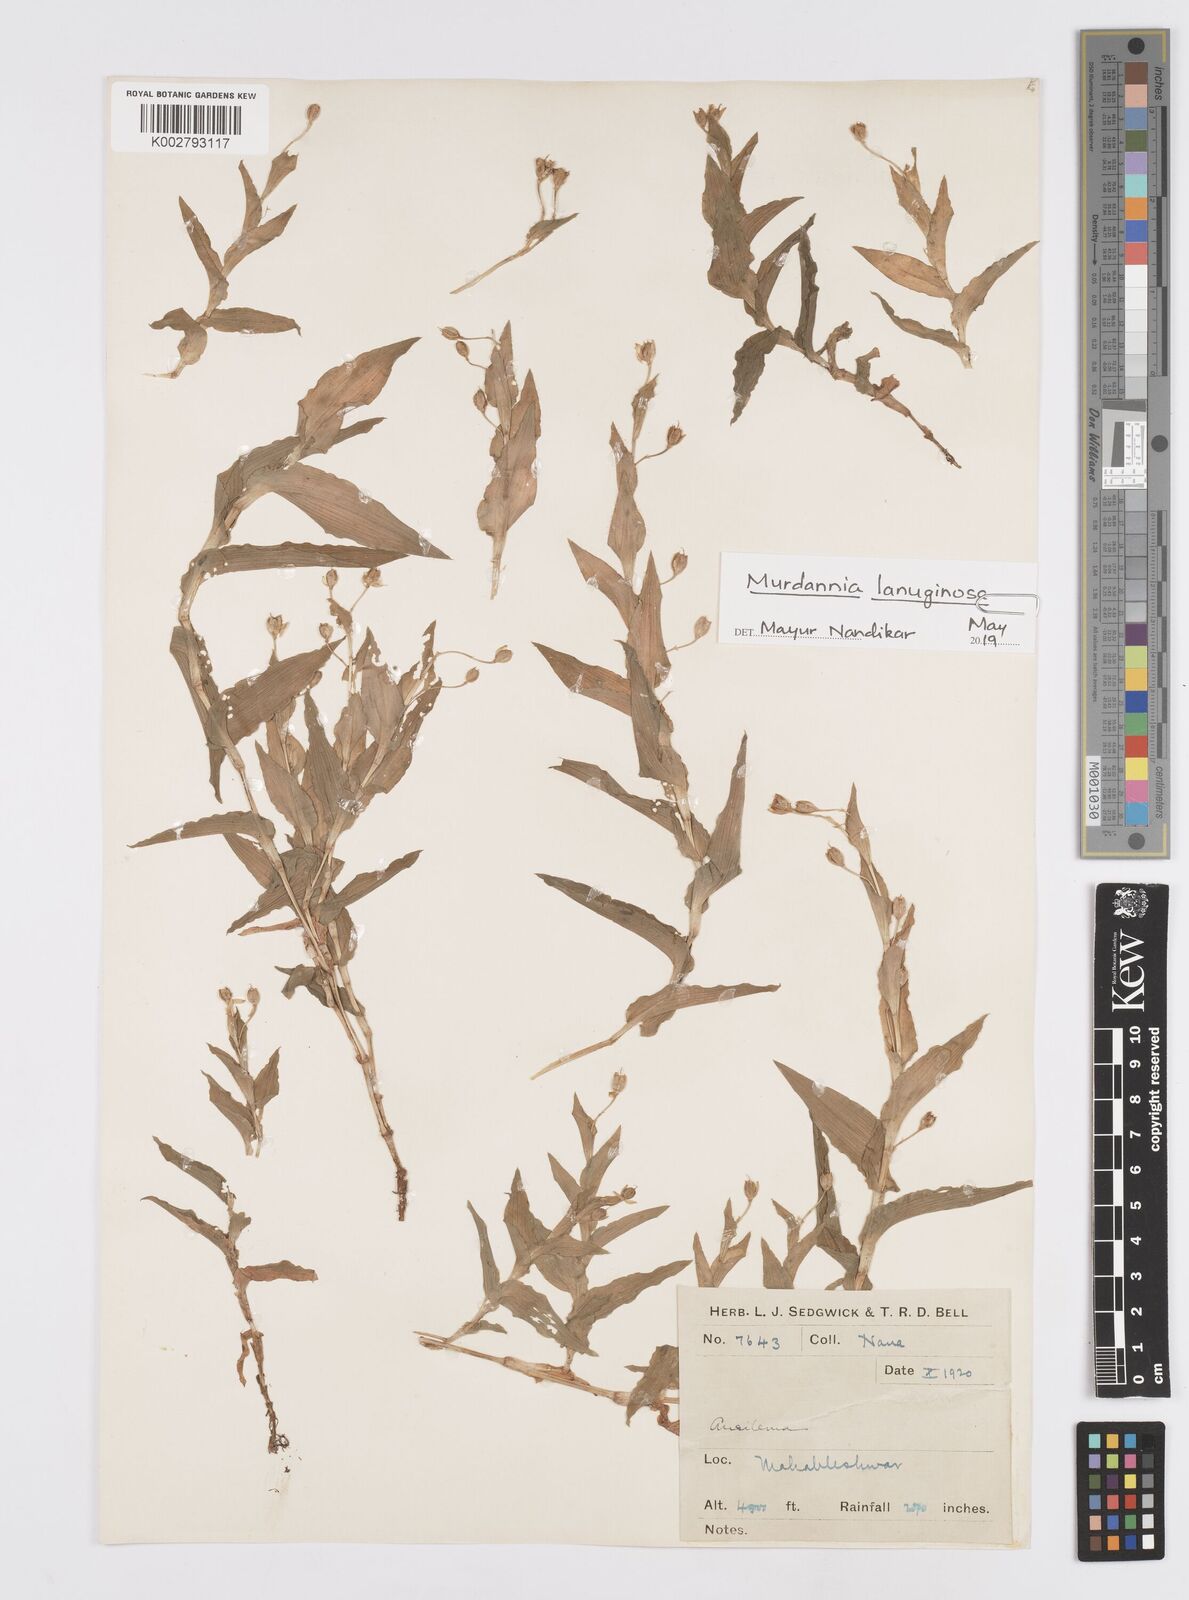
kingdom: Plantae
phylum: Tracheophyta
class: Liliopsida
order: Commelinales
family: Commelinaceae
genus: Murdannia
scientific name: Murdannia versicolor
